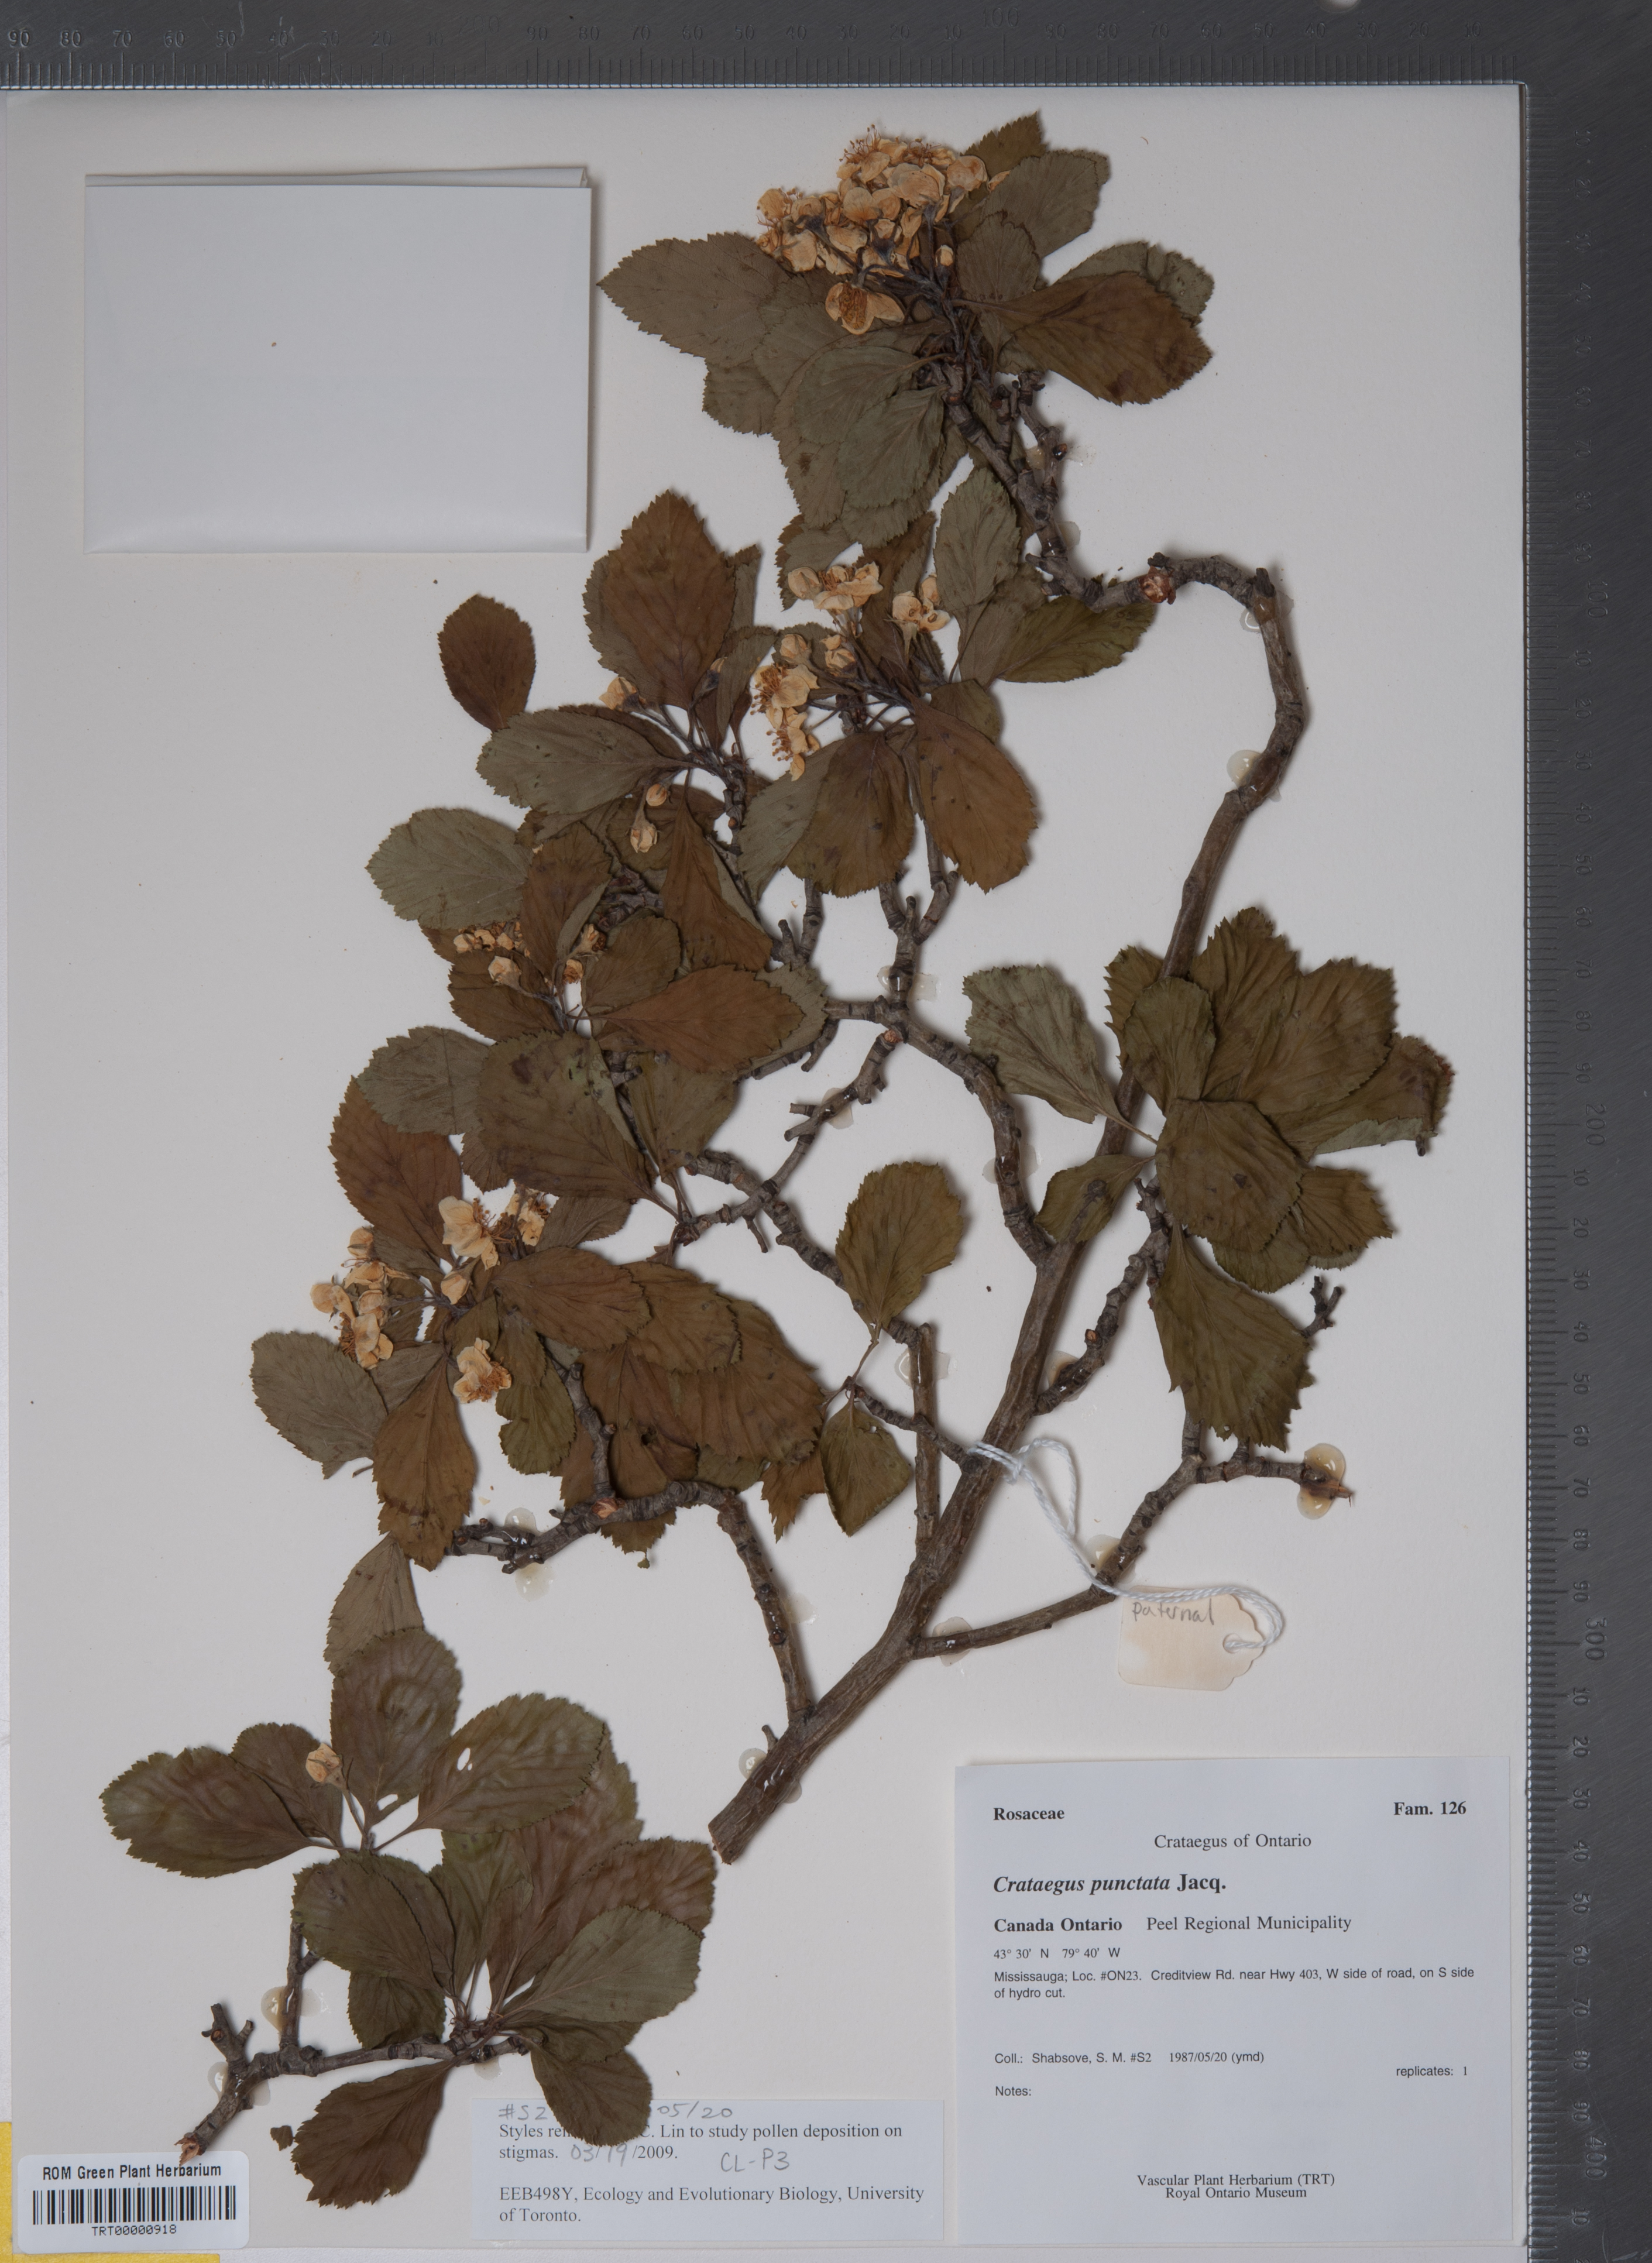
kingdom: Plantae
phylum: Tracheophyta
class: Magnoliopsida
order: Rosales
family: Rosaceae
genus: Crataegus
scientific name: Crataegus punctata
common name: Dotted hawthorn
